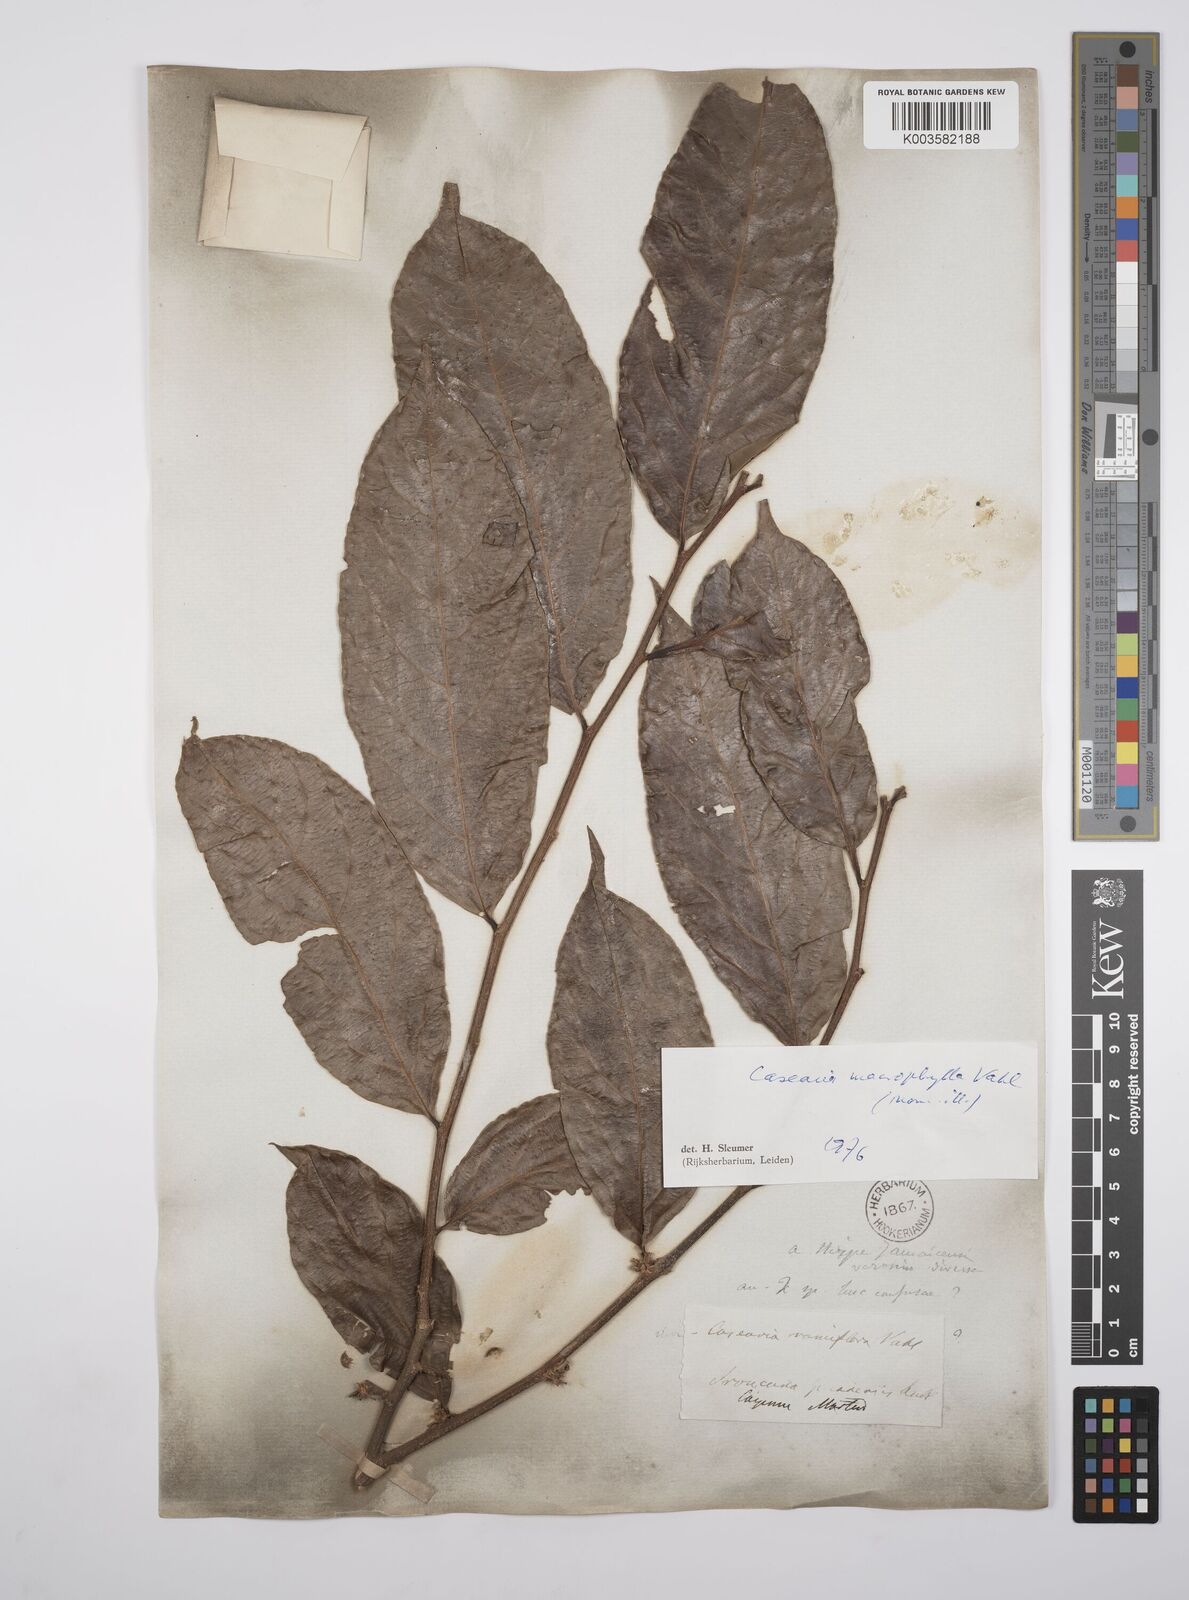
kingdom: Plantae
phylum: Tracheophyta
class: Magnoliopsida
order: Malpighiales
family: Salicaceae
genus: Casearia
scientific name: Casearia pitumba
